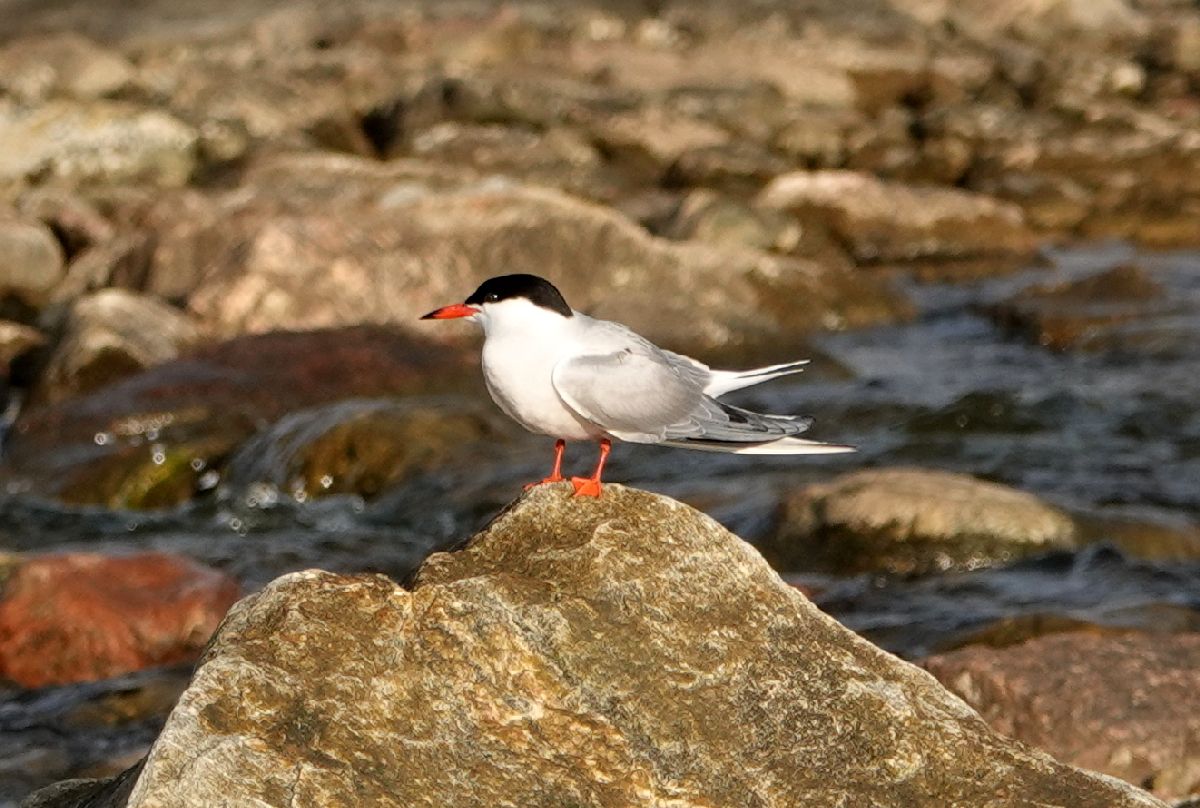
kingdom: Animalia
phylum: Chordata
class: Aves
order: Charadriiformes
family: Laridae
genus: Sterna
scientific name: Sterna hirundo
